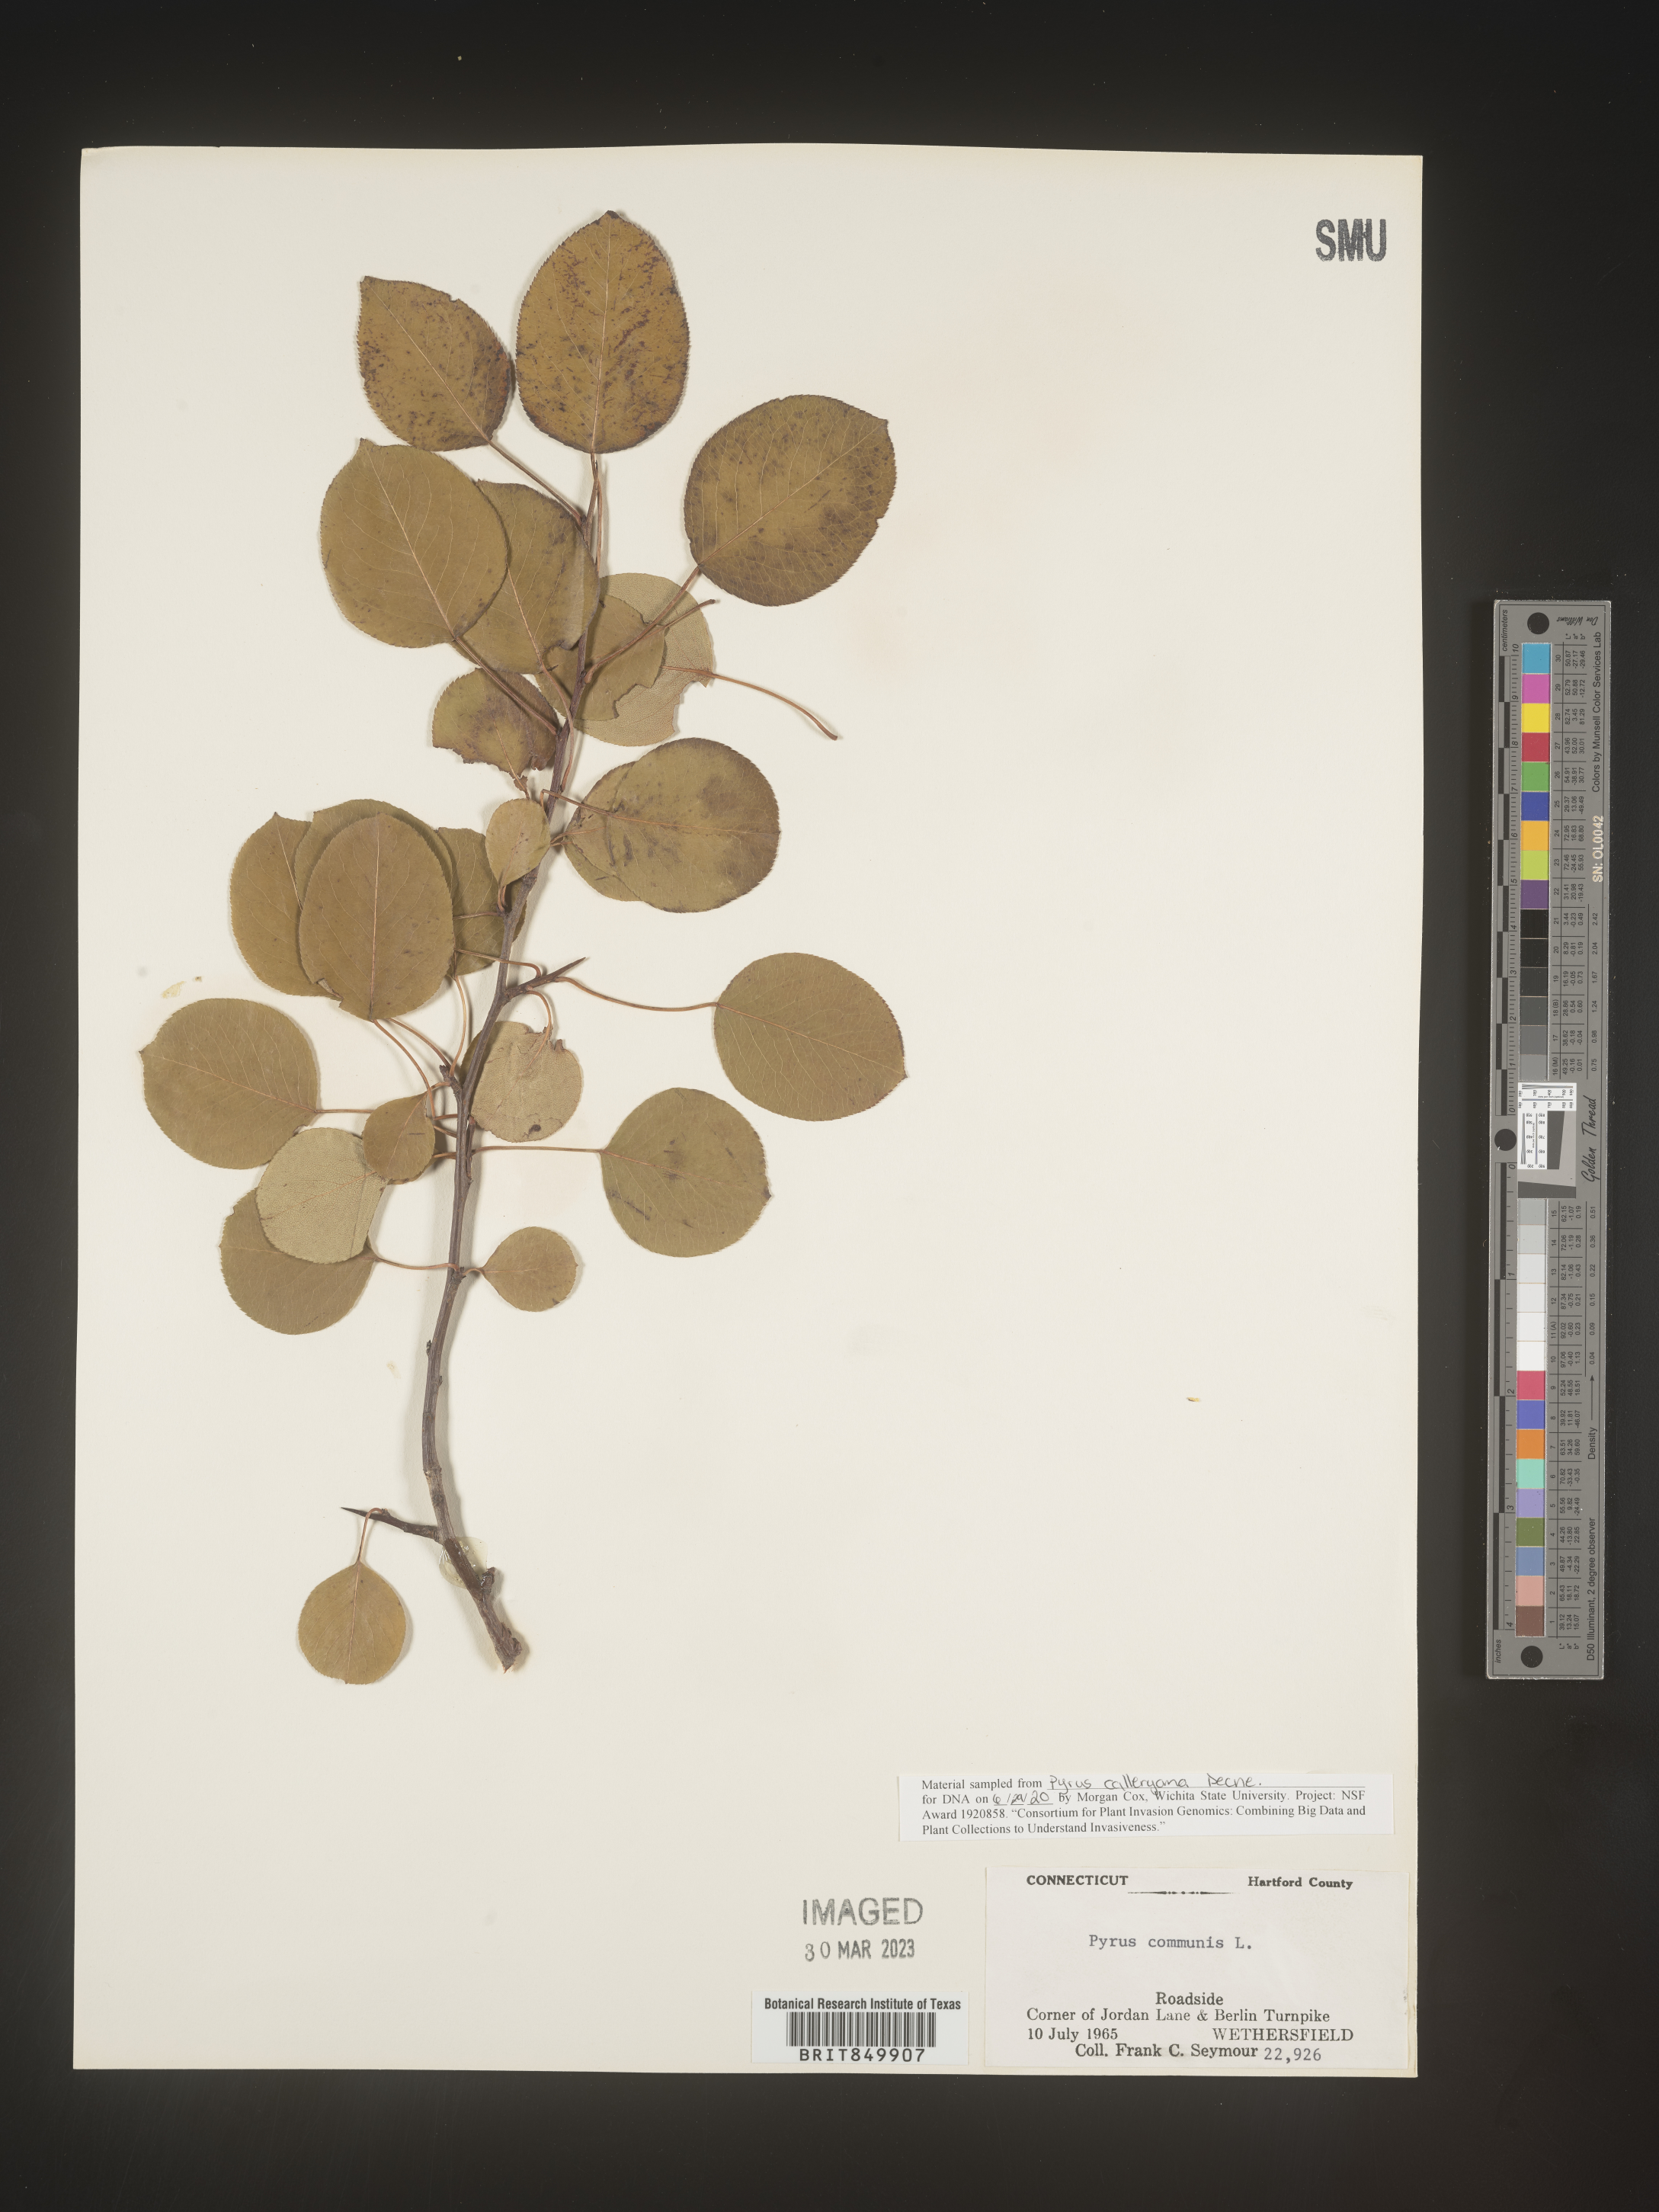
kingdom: Plantae
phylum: Tracheophyta
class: Magnoliopsida
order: Rosales
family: Rosaceae
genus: Pyrus
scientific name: Pyrus
